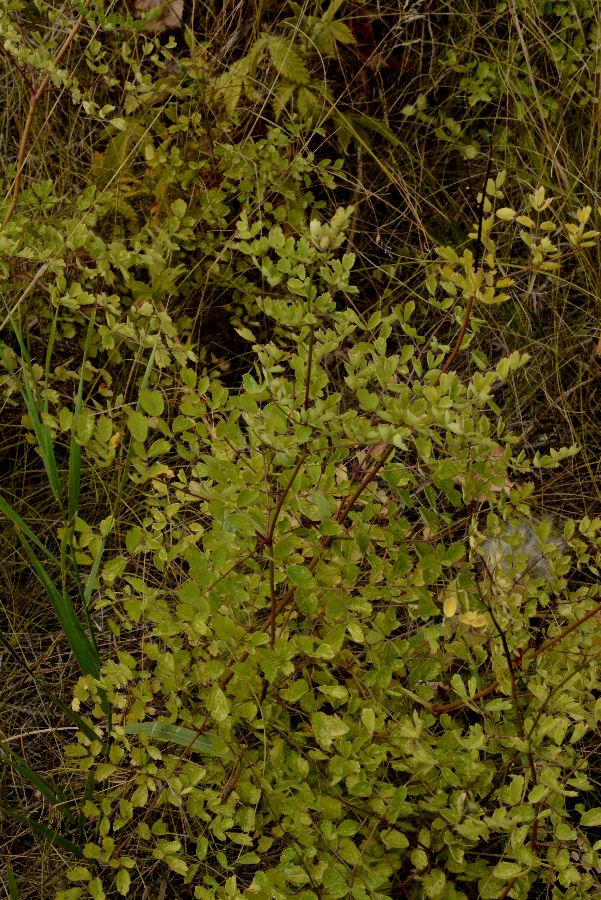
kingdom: Plantae
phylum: Tracheophyta
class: Magnoliopsida
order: Ranunculales
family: Ranunculaceae
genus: Thalictrum
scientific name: Thalictrum minus
